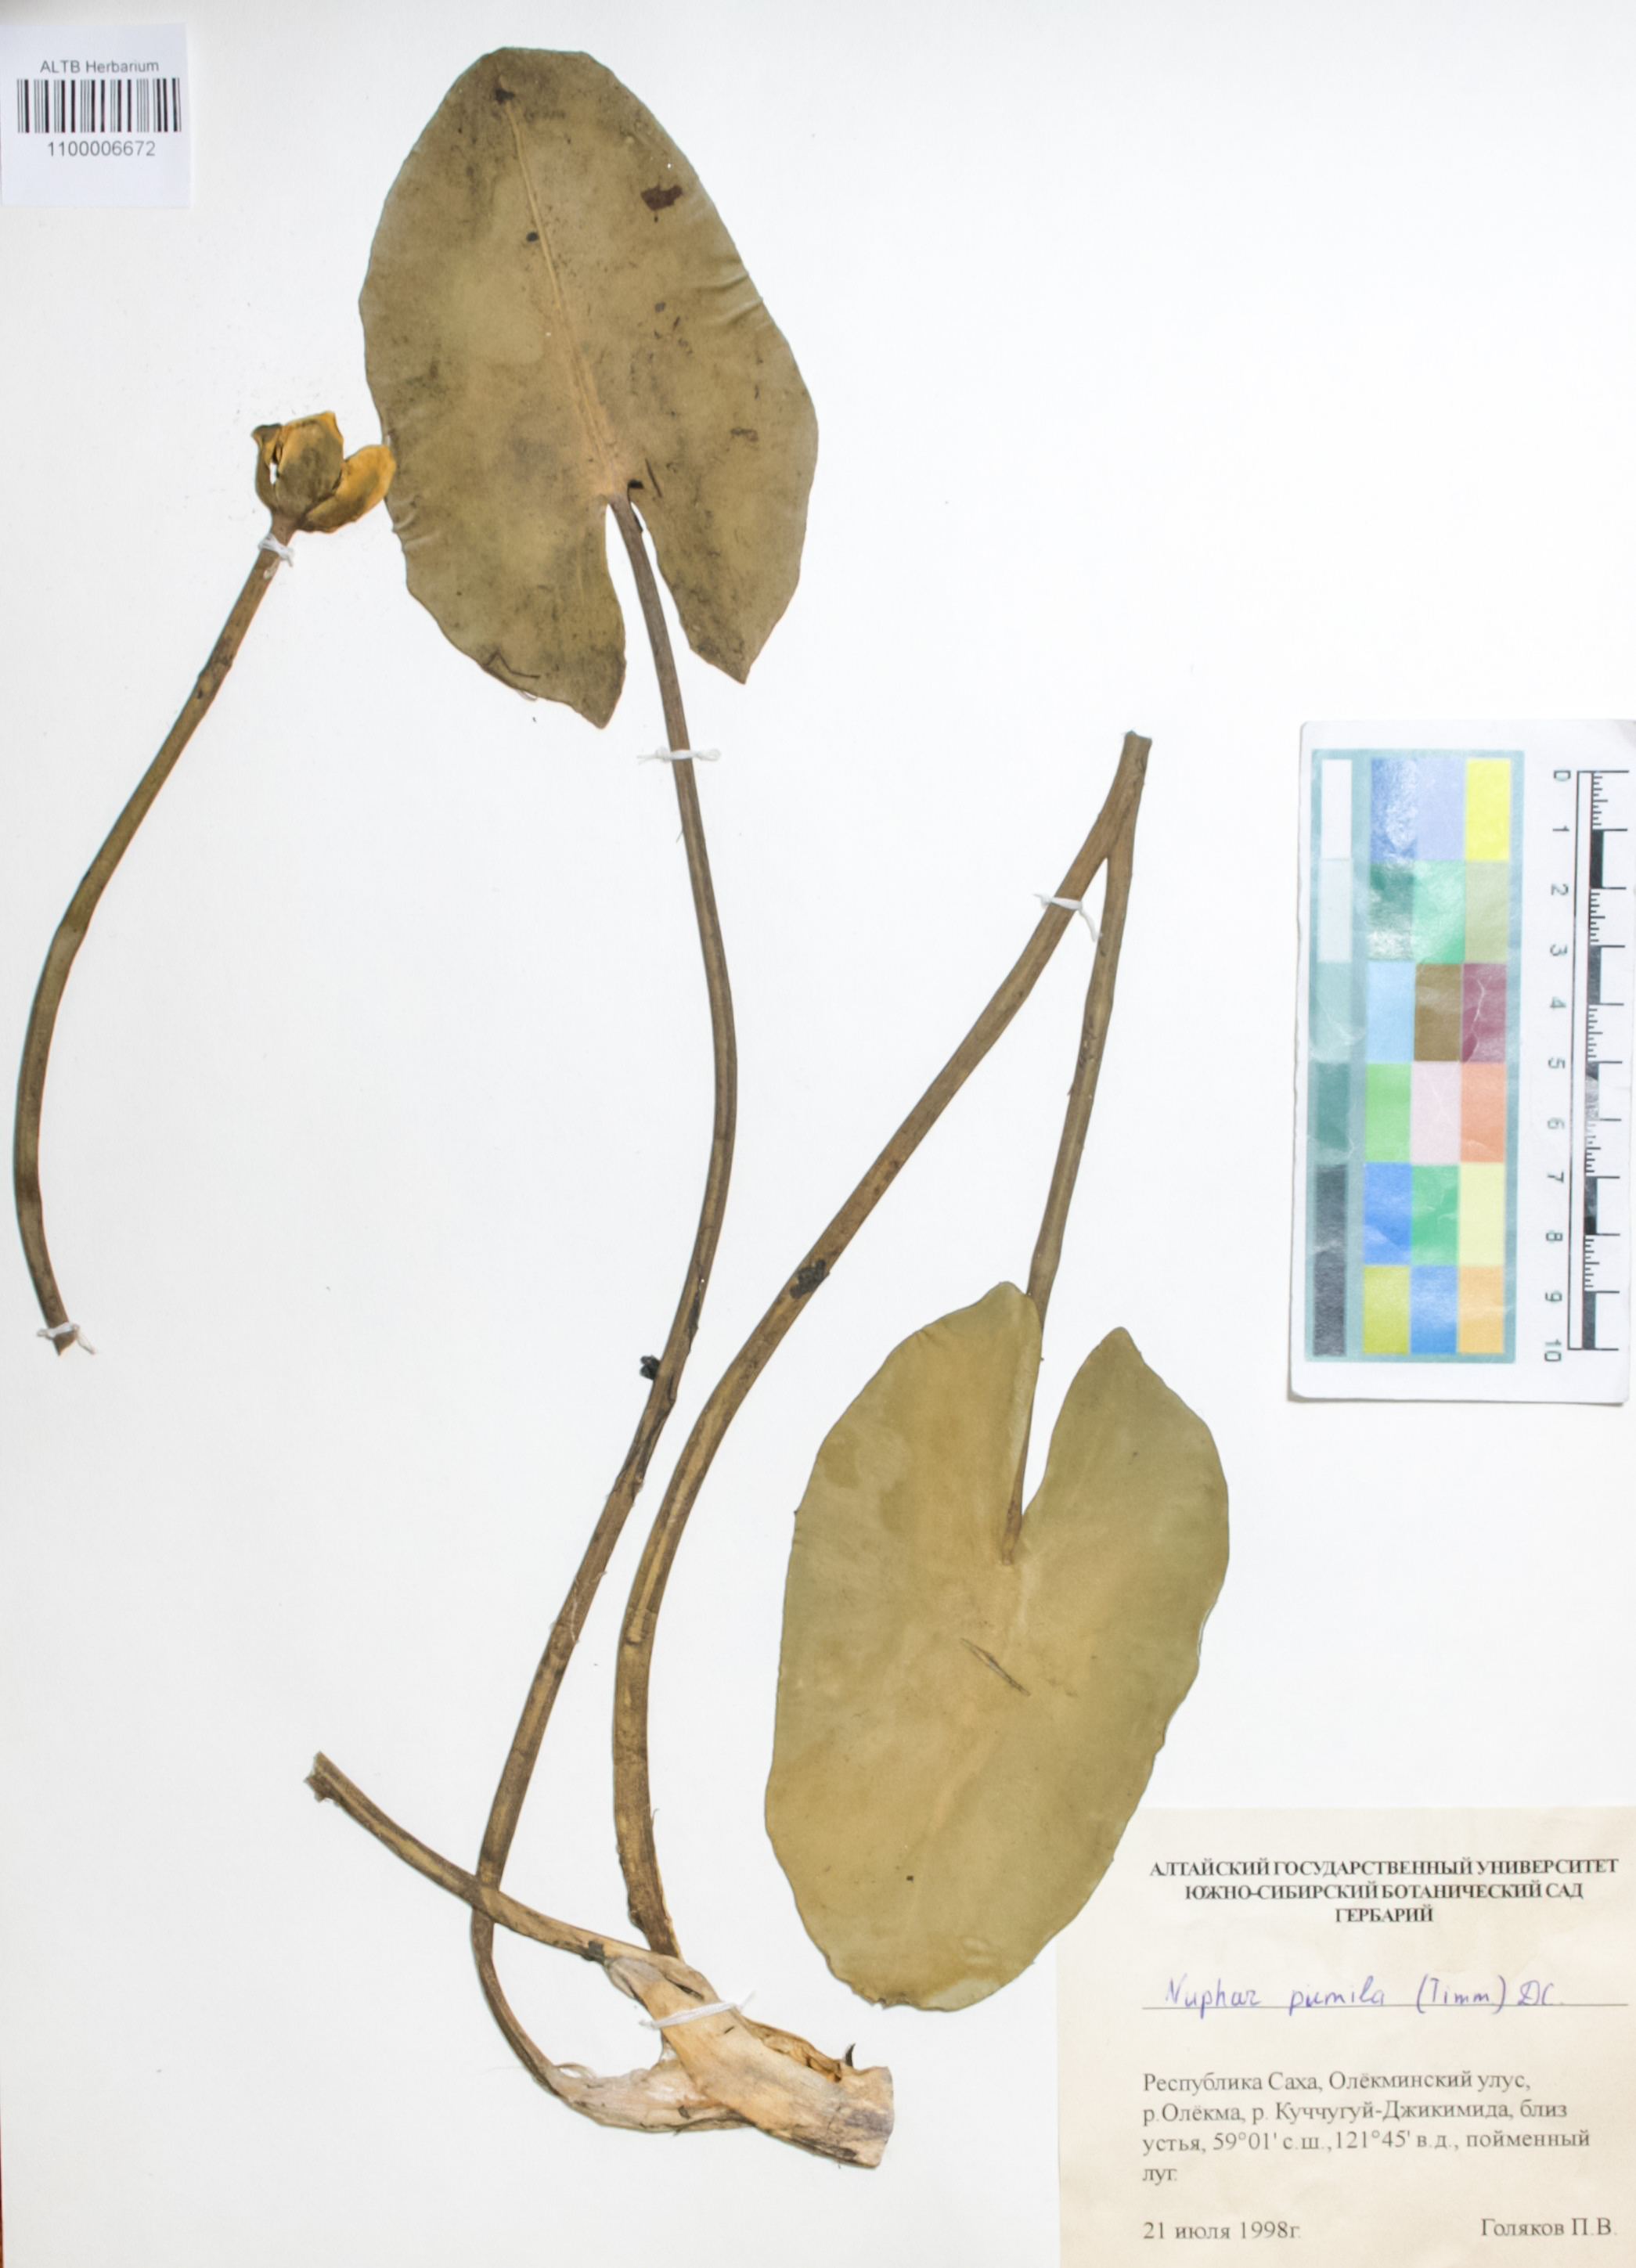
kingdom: Plantae
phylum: Tracheophyta
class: Magnoliopsida
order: Nymphaeales
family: Nymphaeaceae
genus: Nuphar
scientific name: Nuphar pumila
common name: Least water-lily
